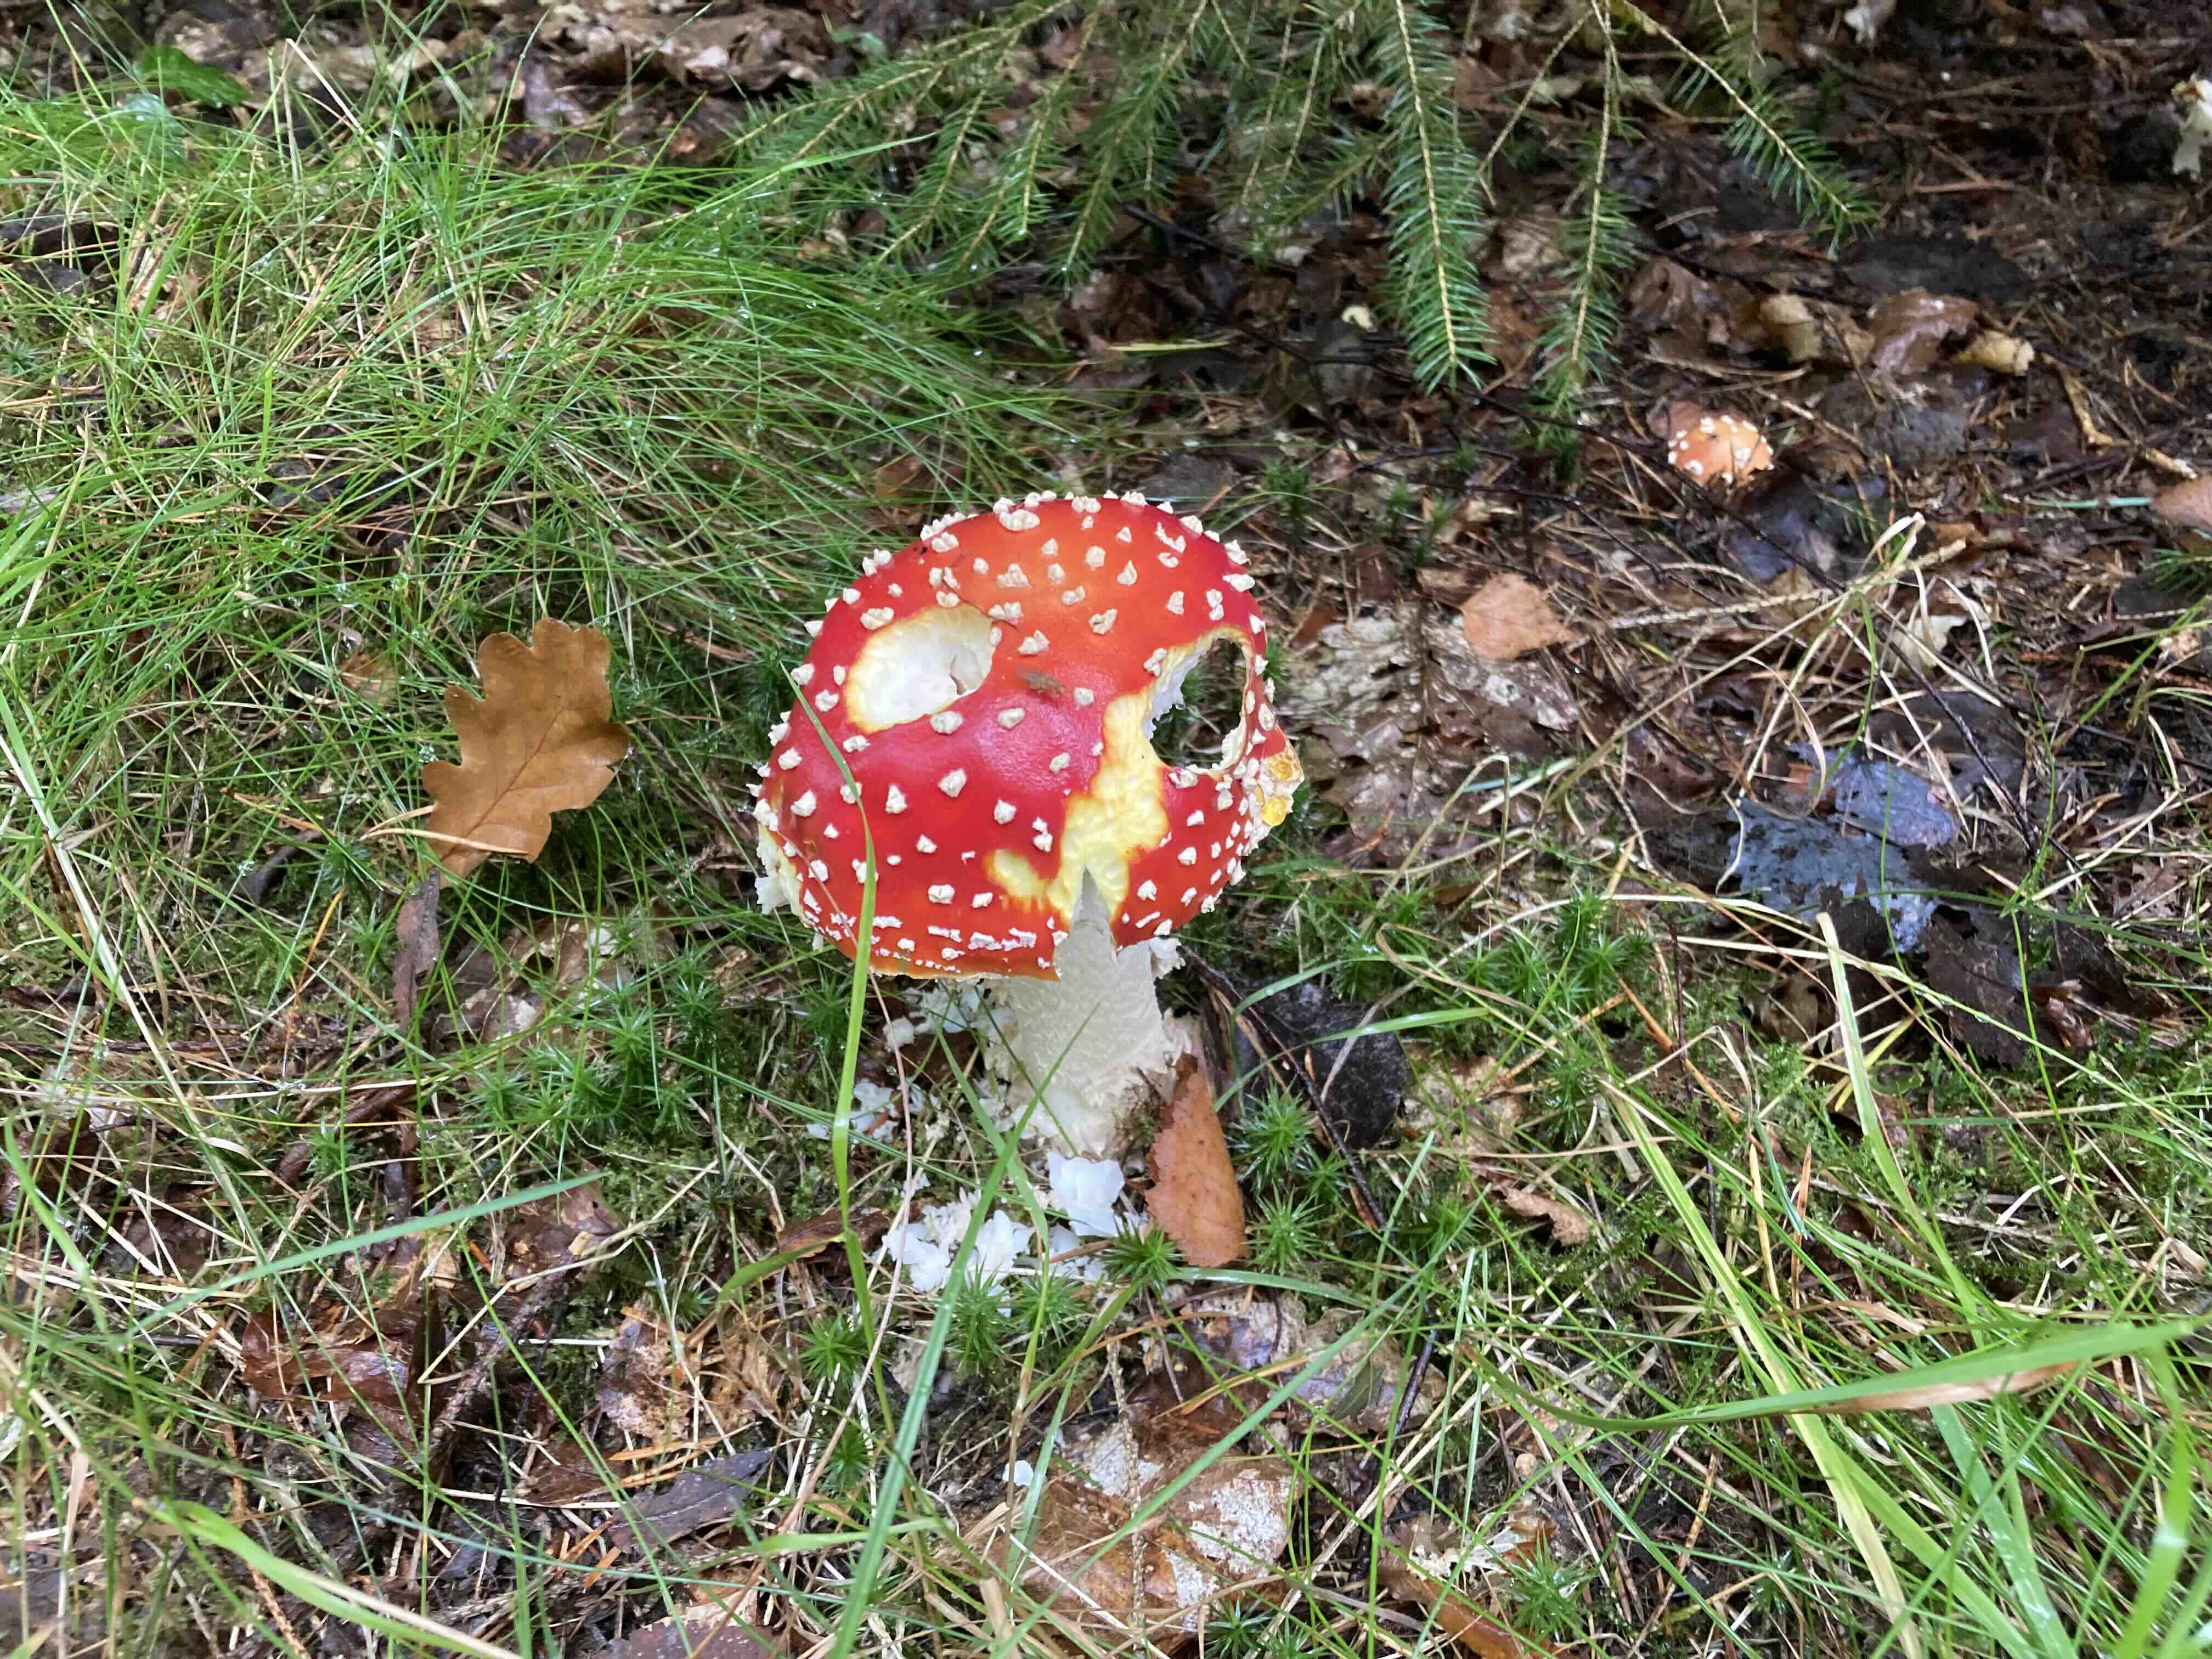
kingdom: Fungi
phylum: Basidiomycota
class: Agaricomycetes
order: Agaricales
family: Amanitaceae
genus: Amanita
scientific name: Amanita muscaria
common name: rød fluesvamp
